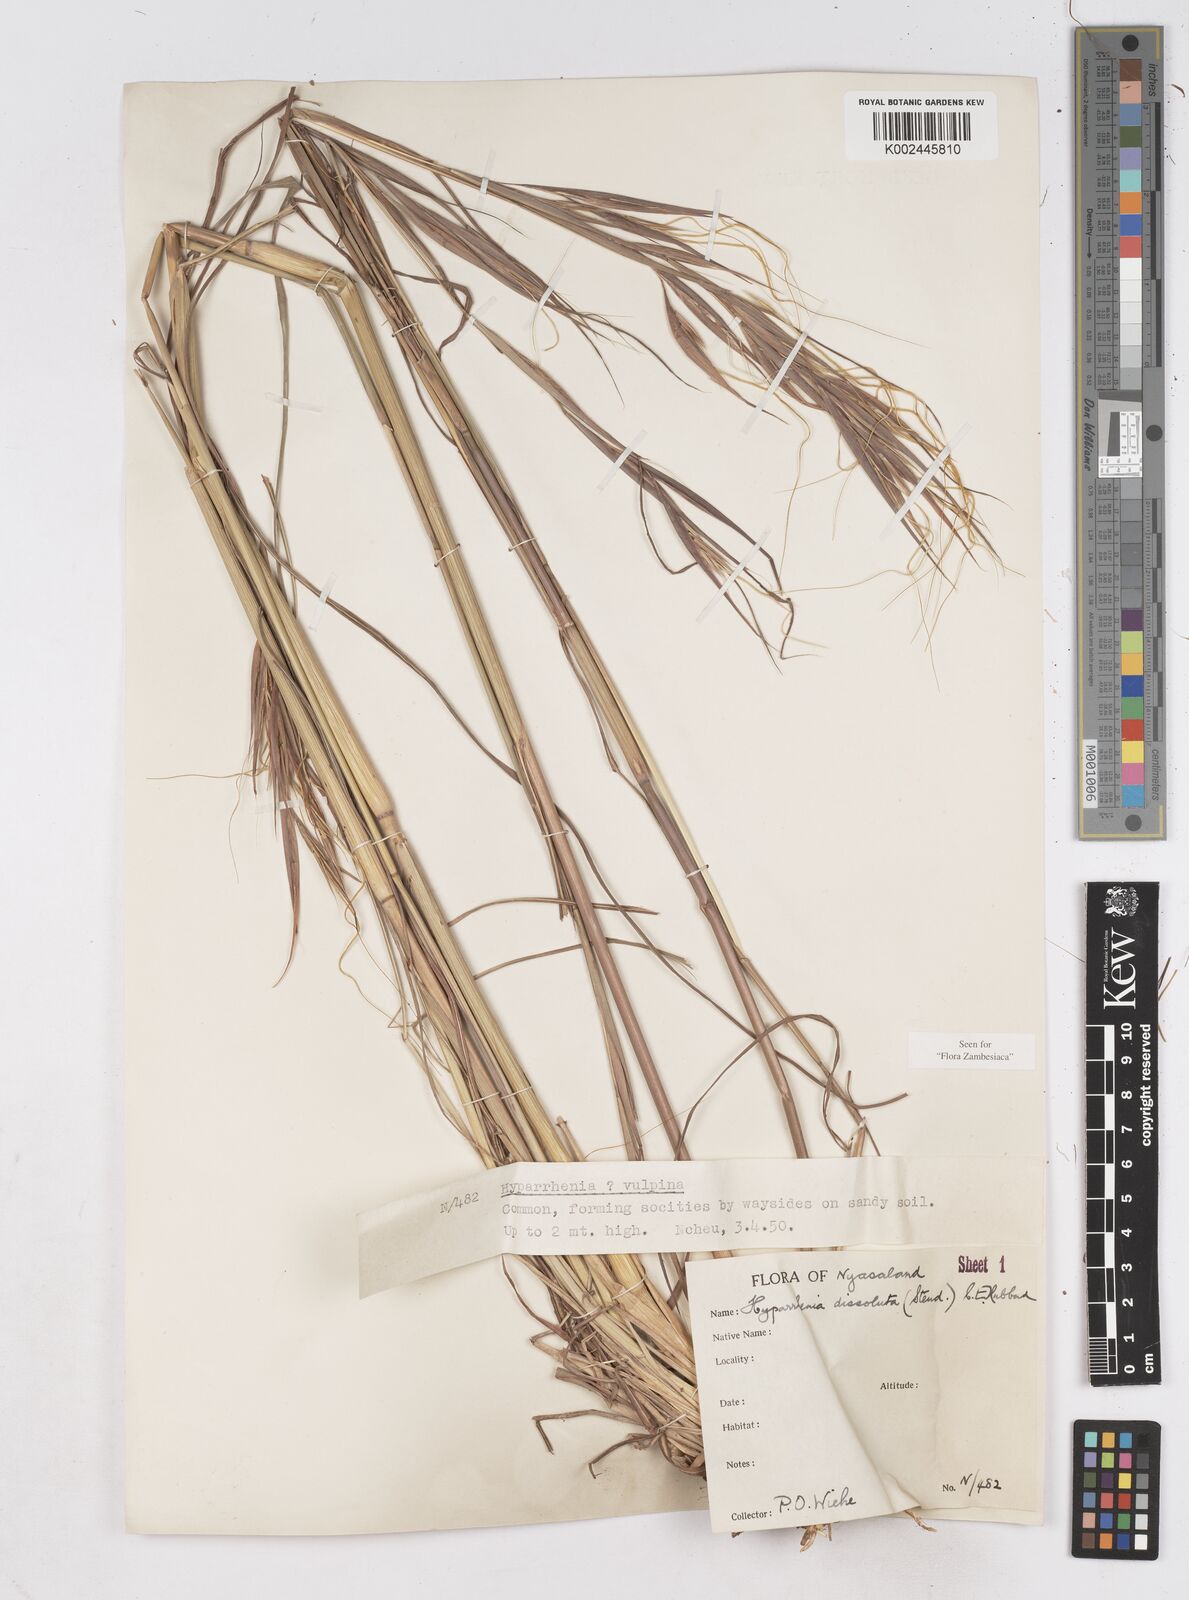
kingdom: Plantae
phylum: Tracheophyta
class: Liliopsida
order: Poales
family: Poaceae
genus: Hyperthelia
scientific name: Hyperthelia dissoluta
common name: Yellow thatching grass
